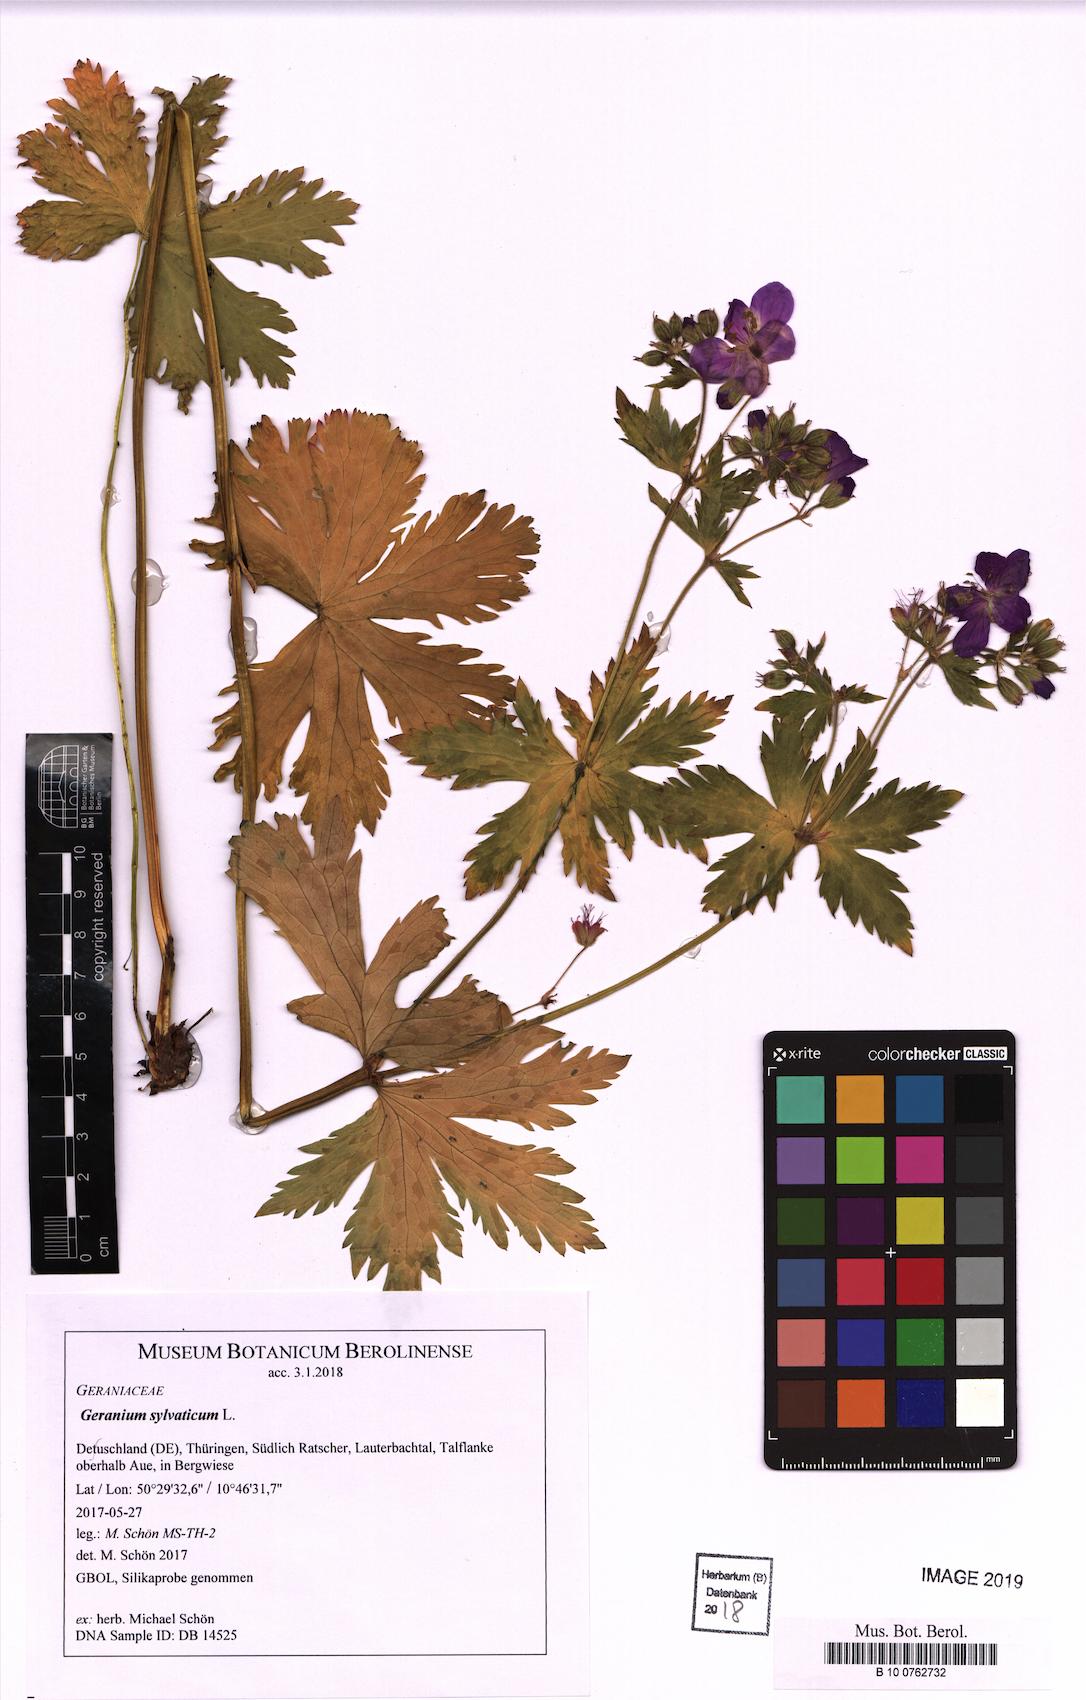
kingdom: Plantae
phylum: Tracheophyta
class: Magnoliopsida
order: Geraniales
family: Geraniaceae
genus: Geranium
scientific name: Geranium sylvaticum
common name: Wood crane's-bill
